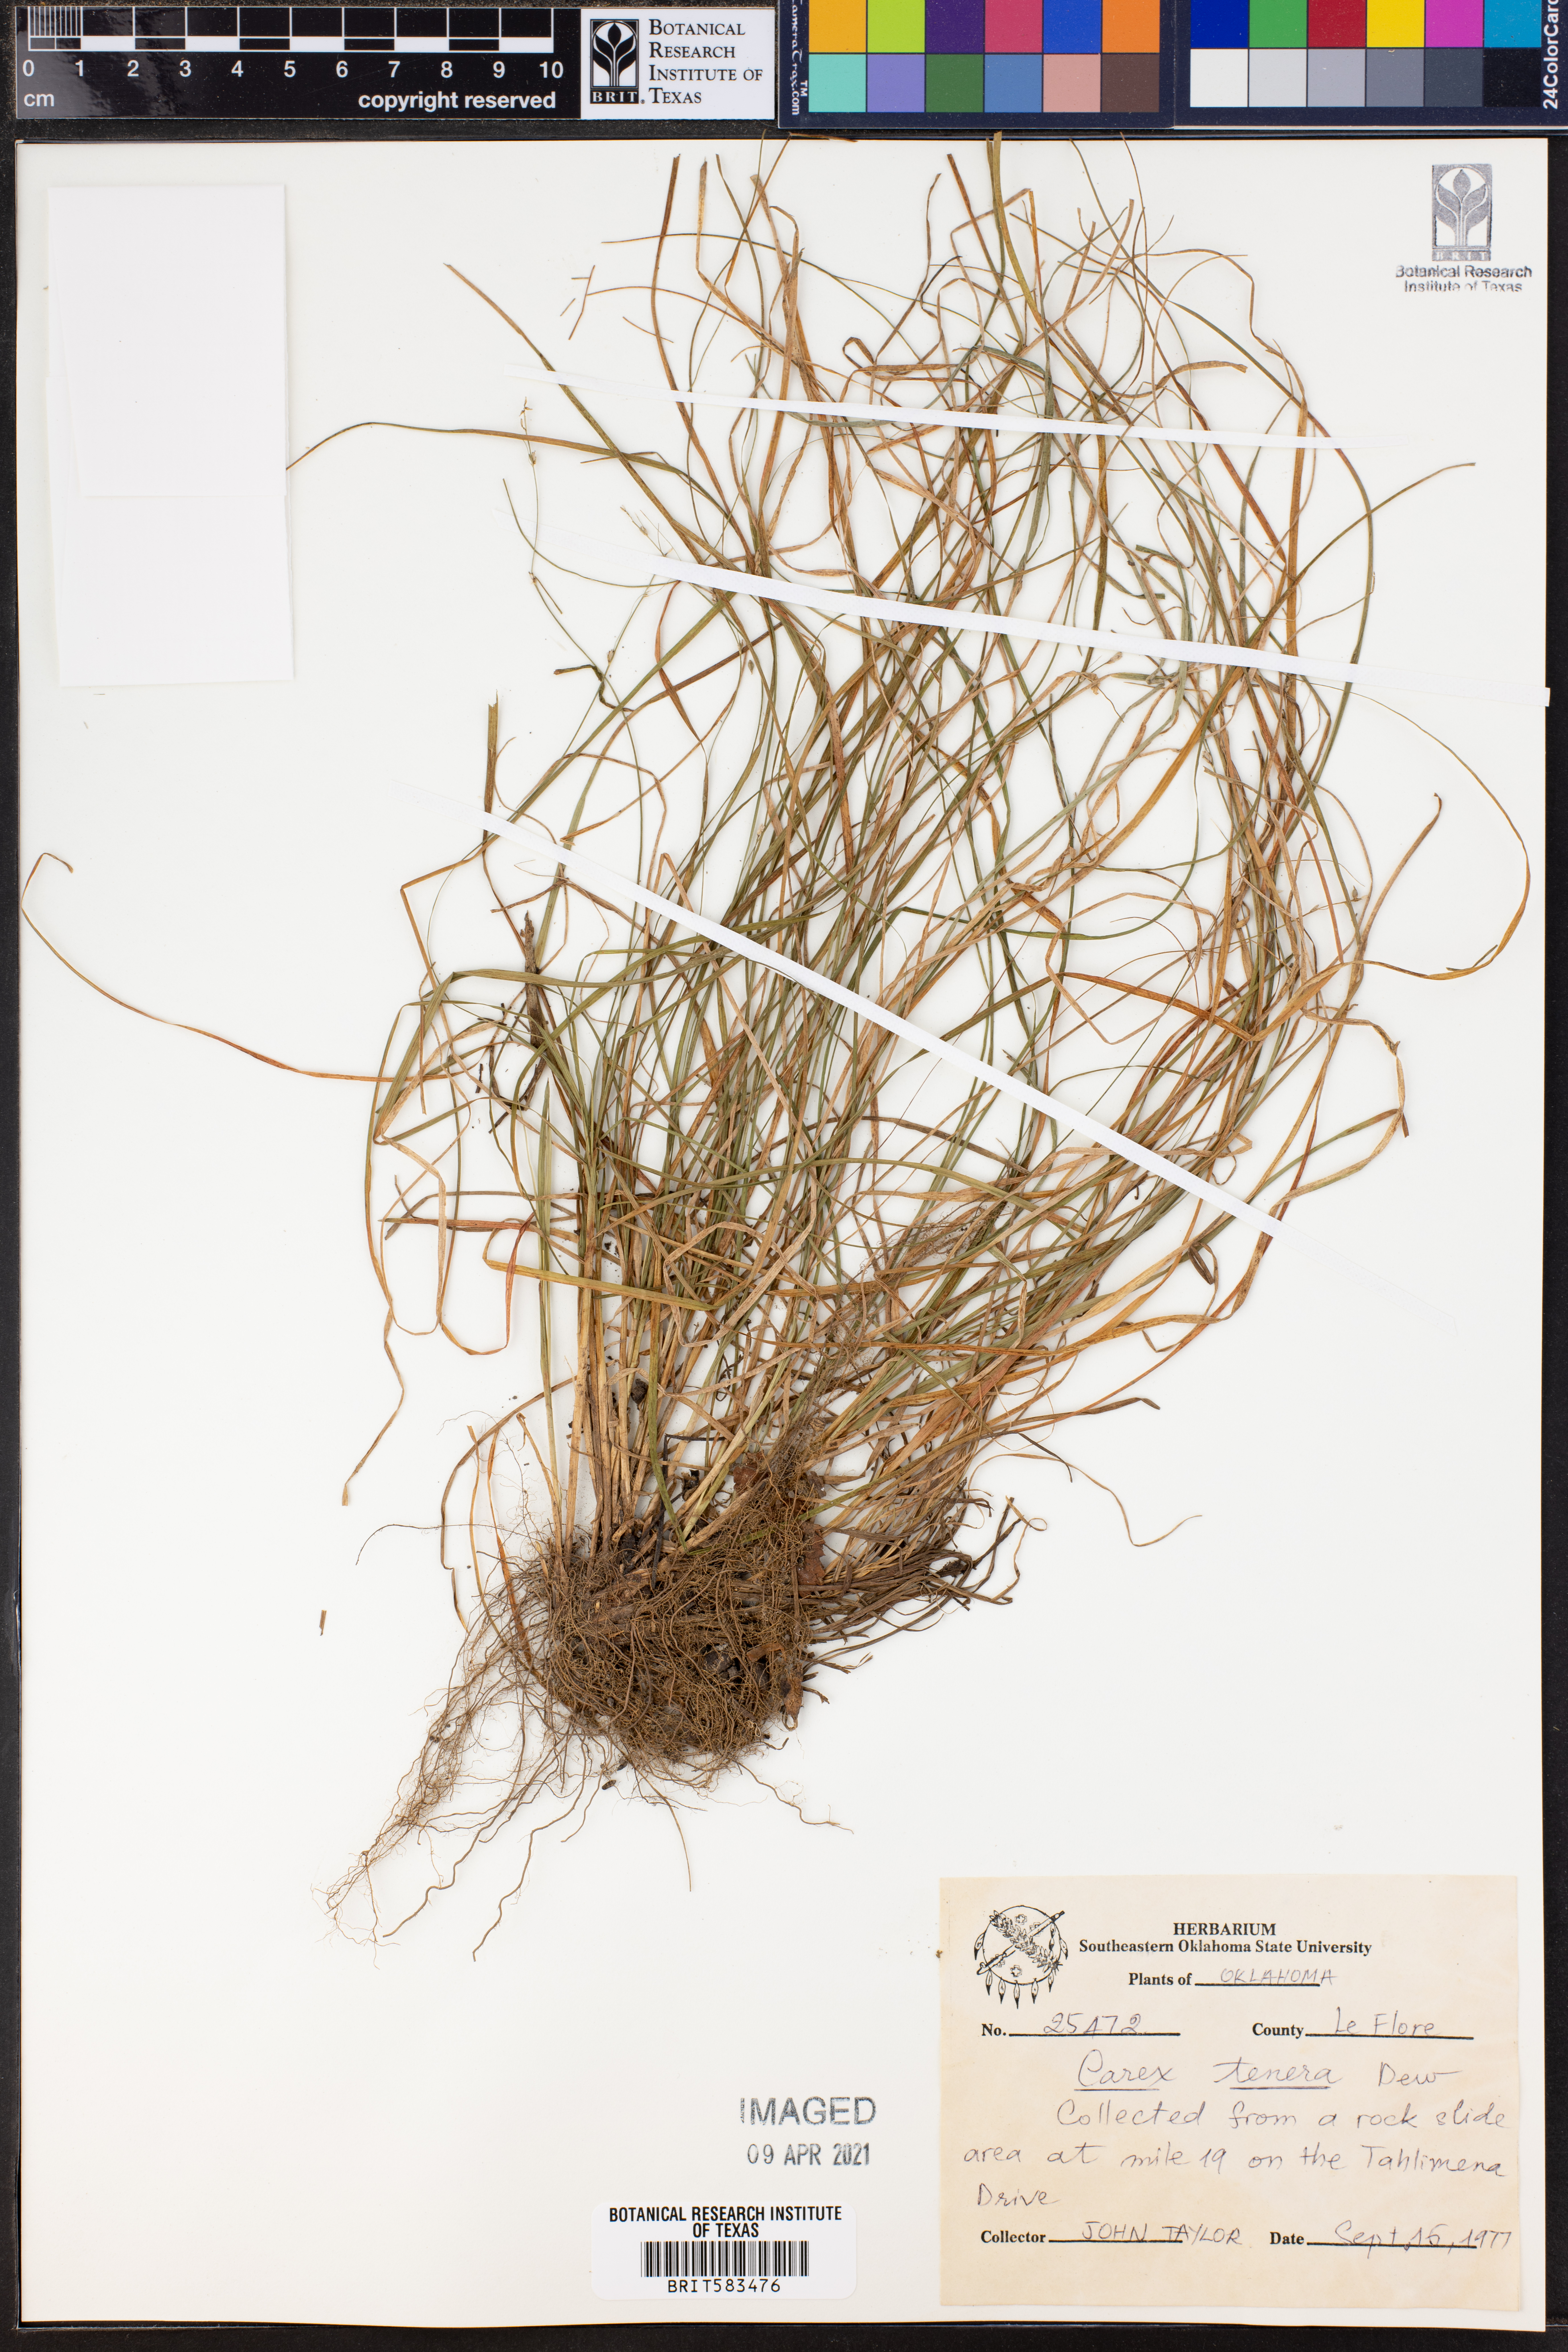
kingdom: Plantae
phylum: Tracheophyta
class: Liliopsida
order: Poales
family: Cyperaceae
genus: Carex
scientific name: Carex tenera
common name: Broad-fruited sedge
